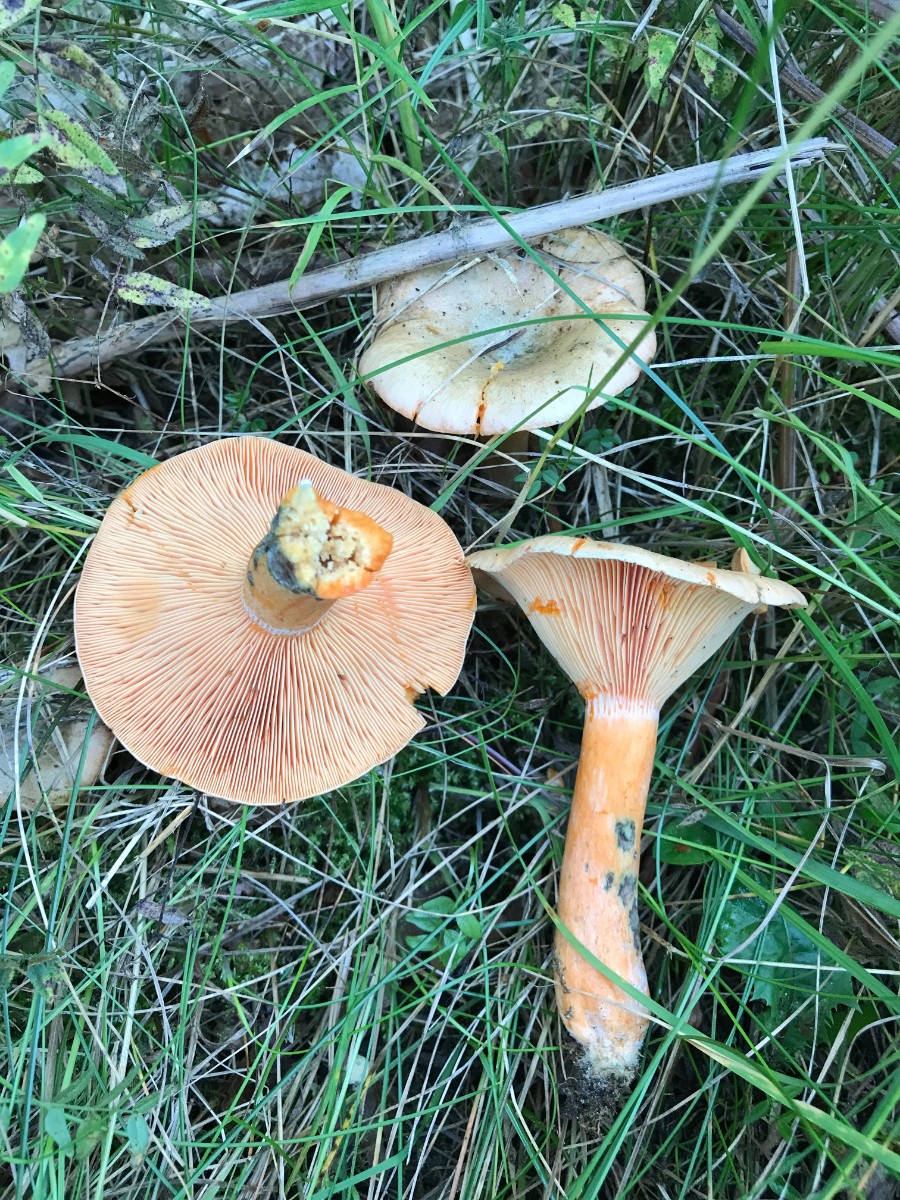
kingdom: Fungi
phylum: Basidiomycota
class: Agaricomycetes
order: Russulales
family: Russulaceae
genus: Lactarius
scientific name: Lactarius deterrimus
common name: gran-mælkehat
